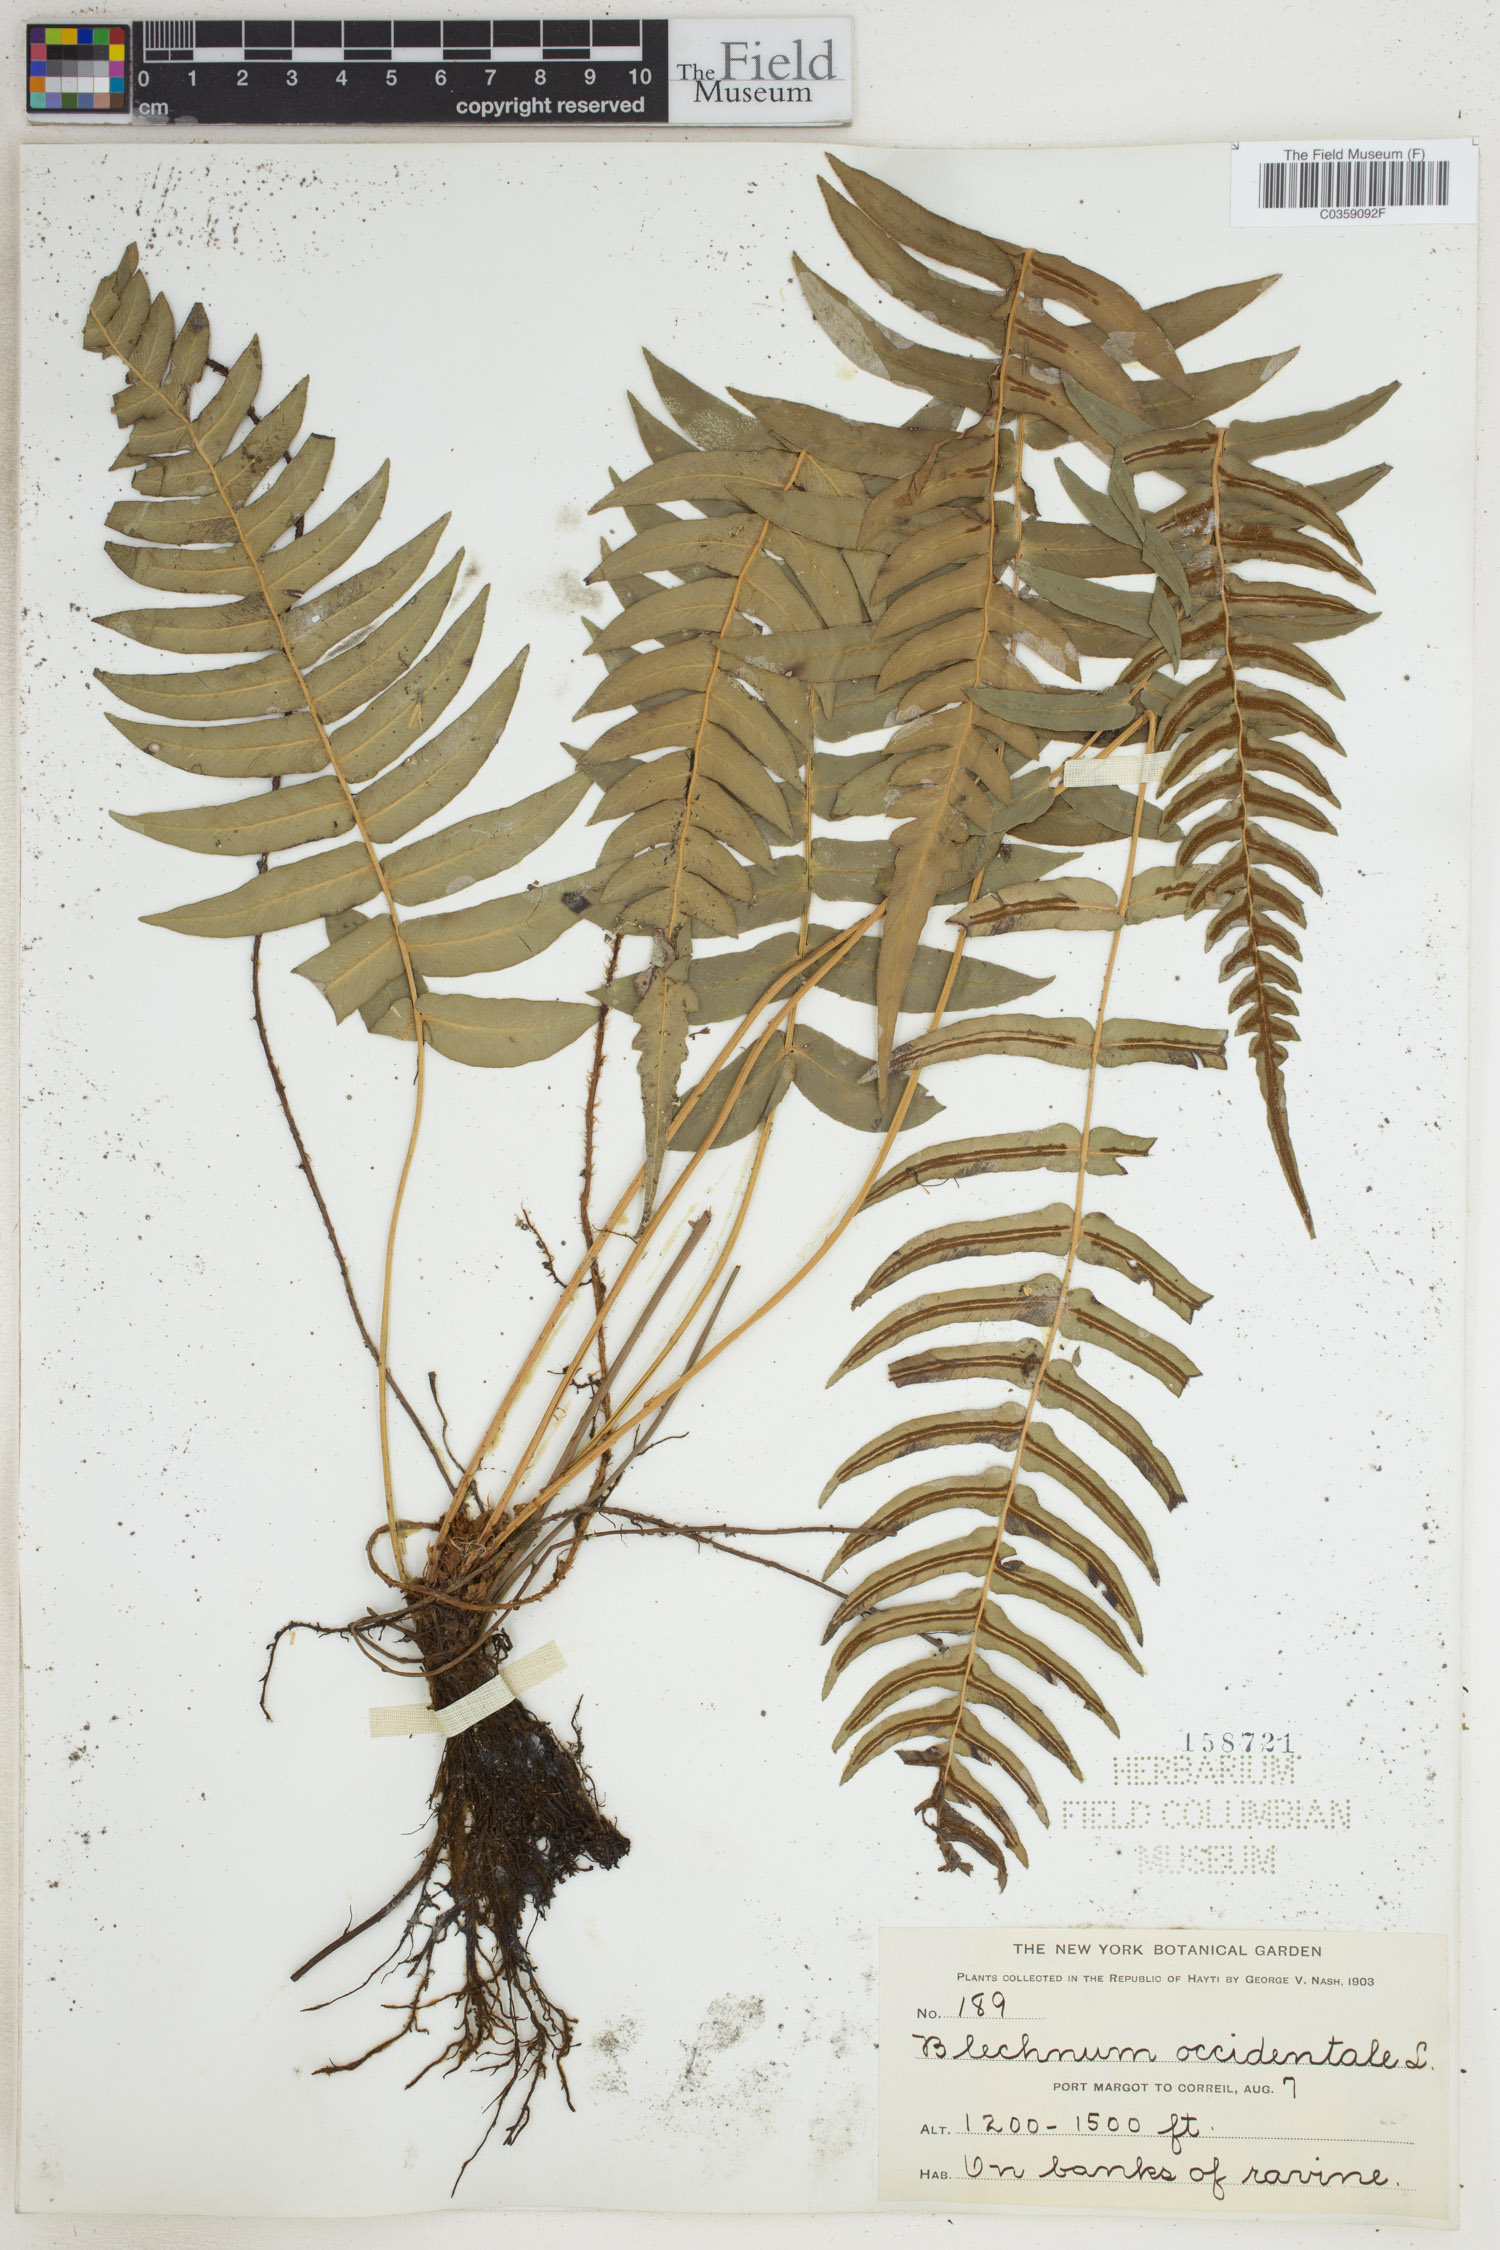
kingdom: Plantae
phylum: Tracheophyta
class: Polypodiopsida
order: Polypodiales
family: Blechnaceae
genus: Blechnum
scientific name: Blechnum occidentale
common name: Hammock fern
